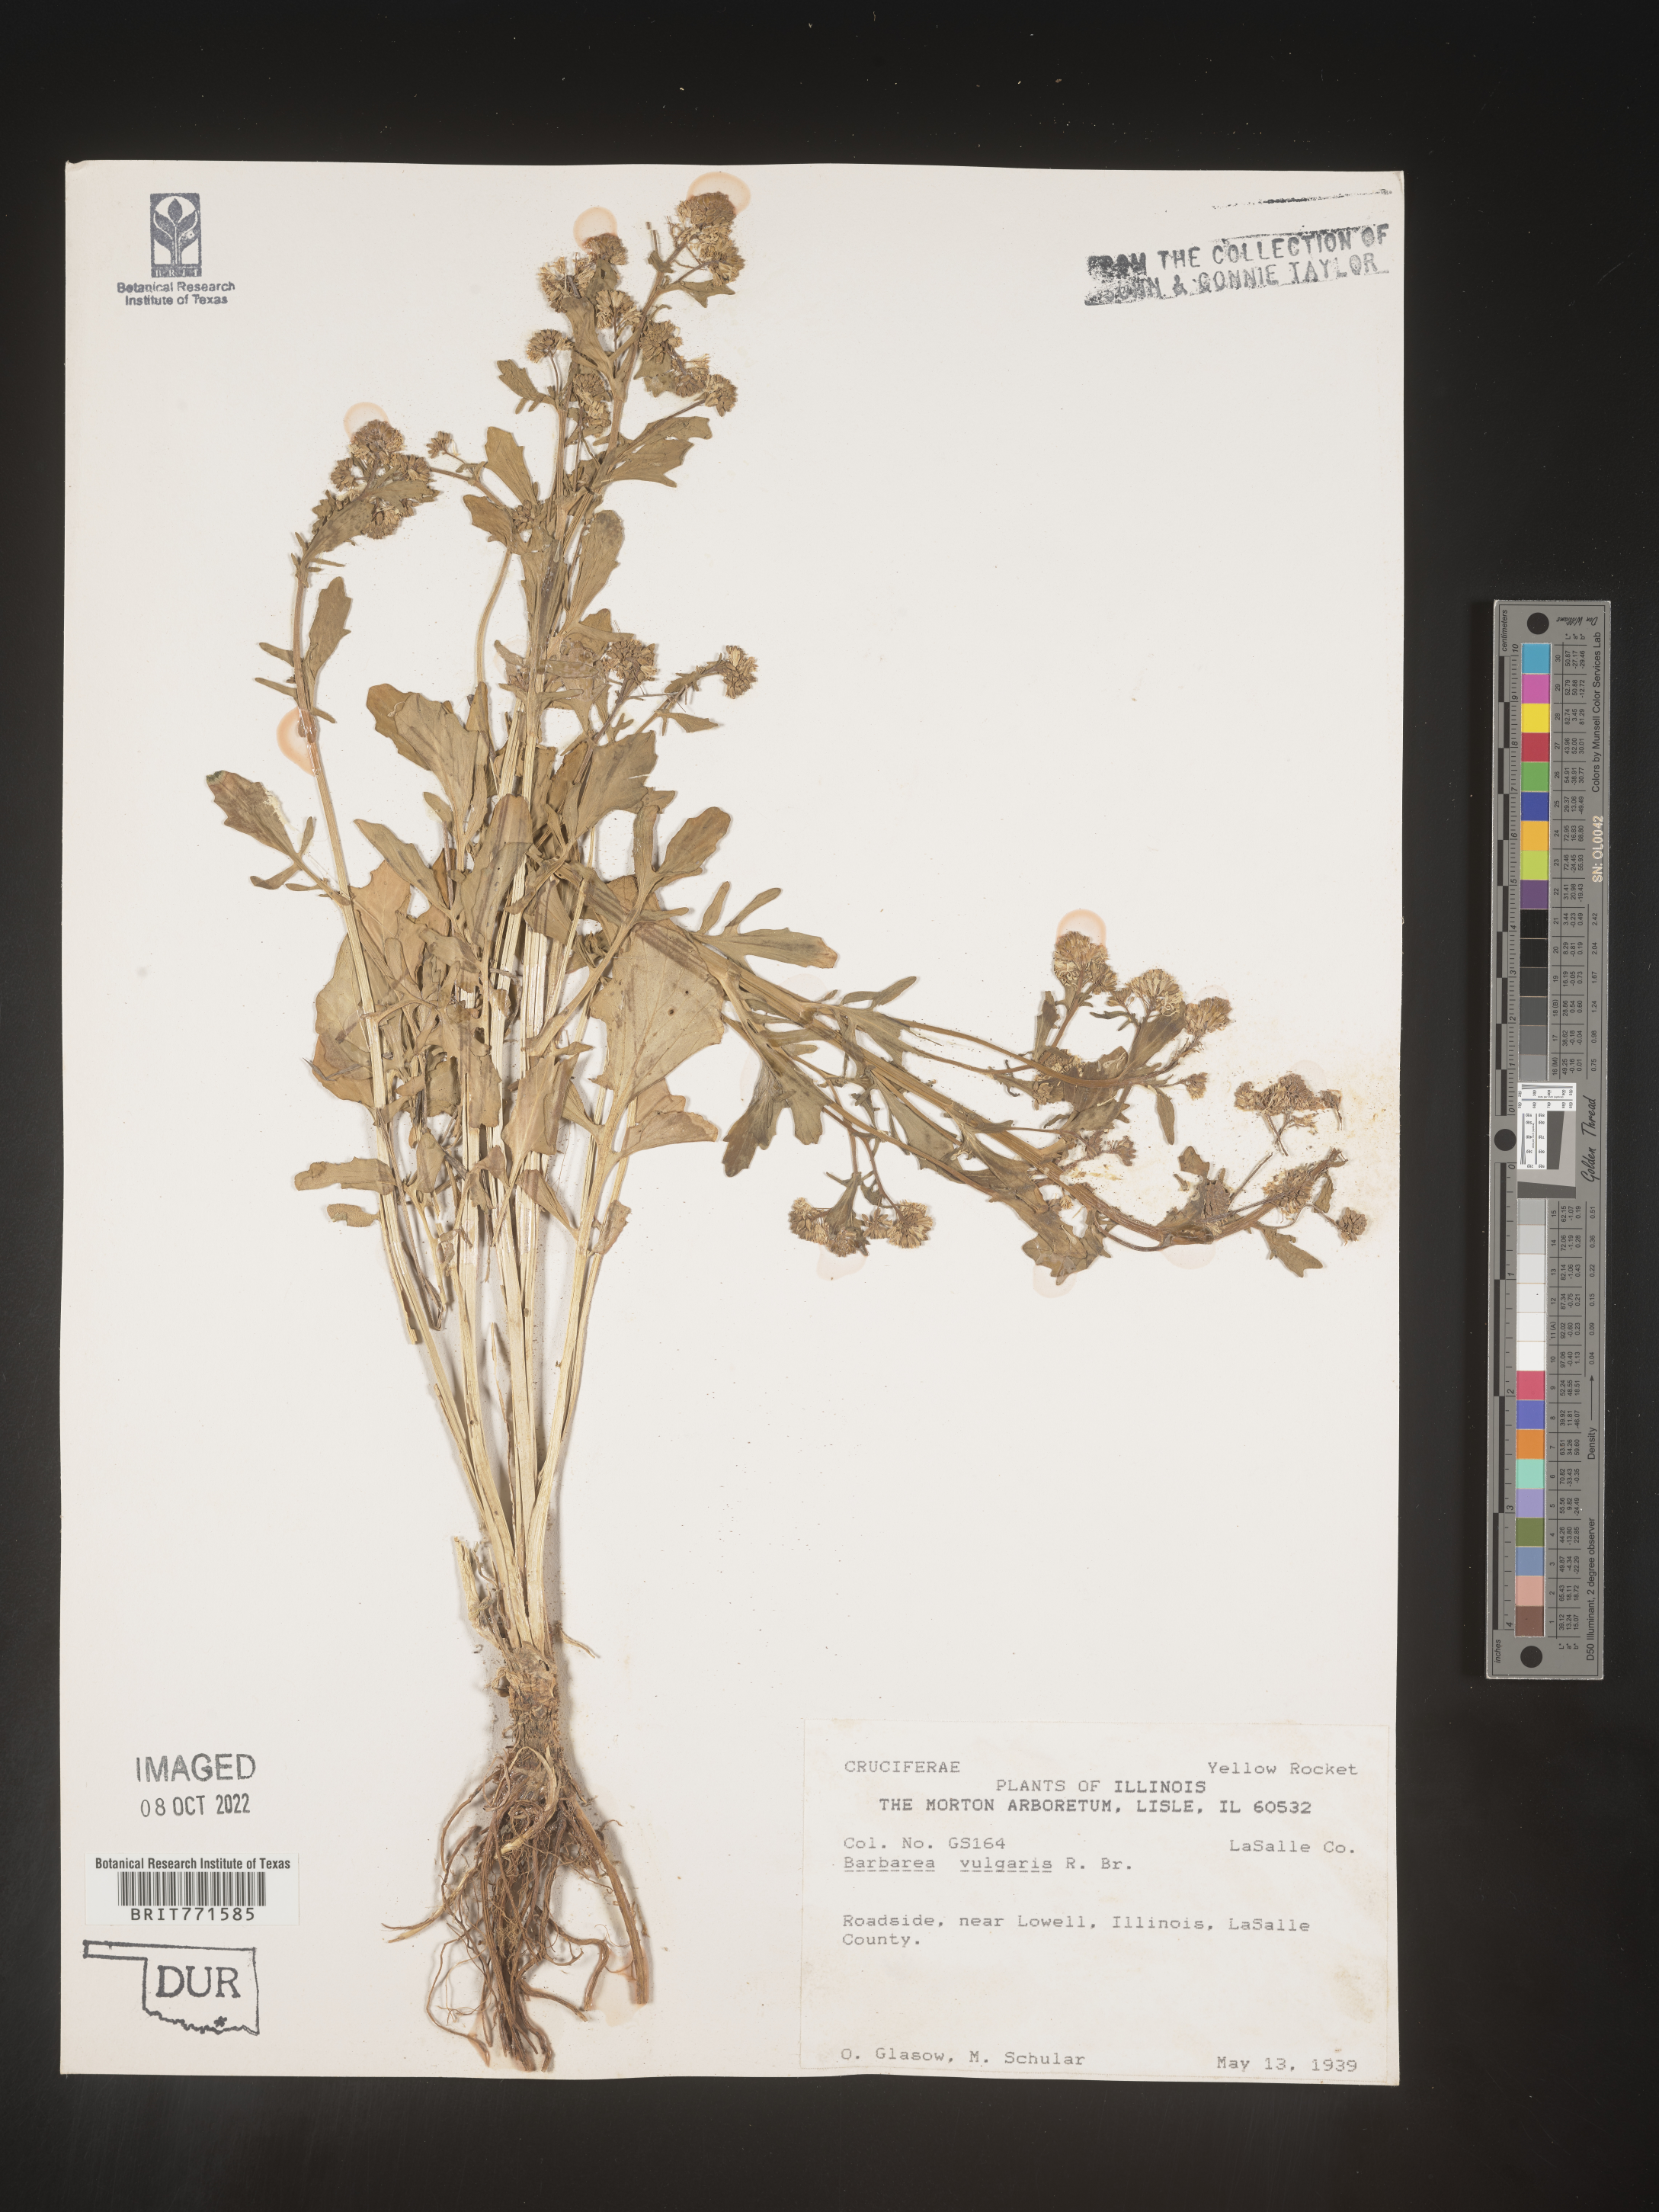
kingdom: Plantae
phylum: Tracheophyta
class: Magnoliopsida
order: Brassicales
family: Brassicaceae
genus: Barbarea
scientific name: Barbarea vulgaris
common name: Cressy-greens
